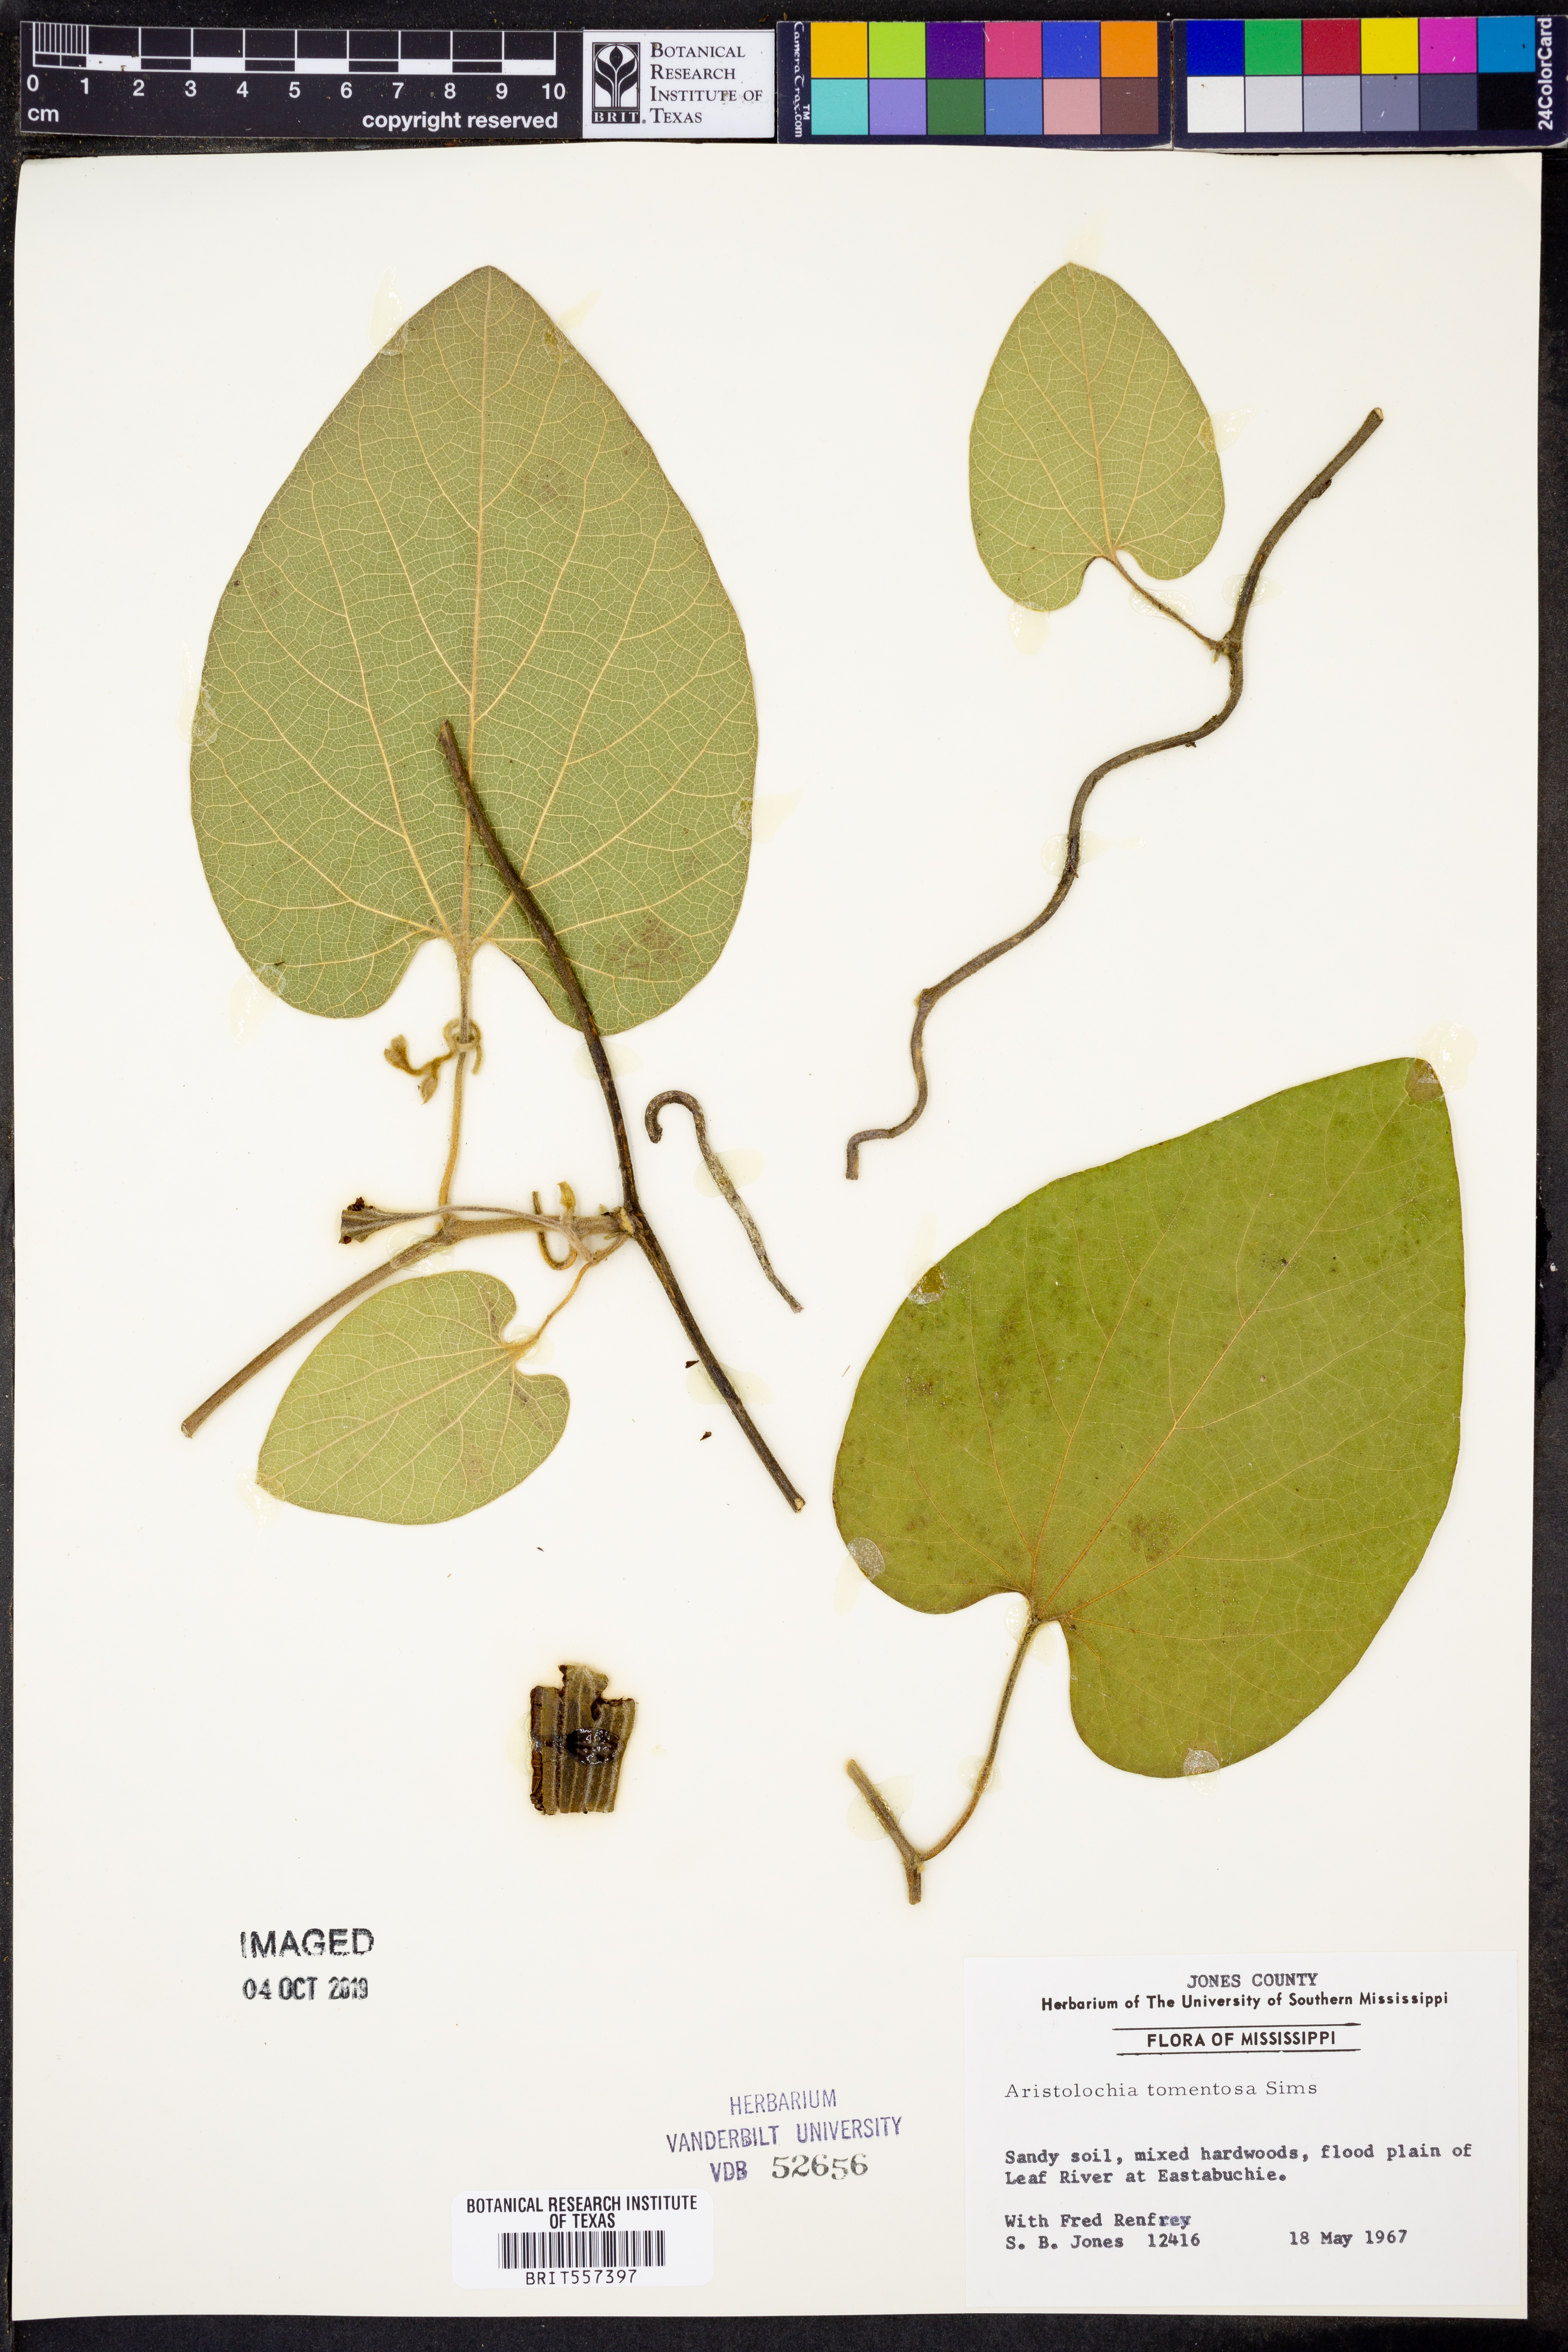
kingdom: Plantae
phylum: Tracheophyta
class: Magnoliopsida
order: Piperales
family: Aristolochiaceae
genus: Isotrema
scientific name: Isotrema tomentosum
